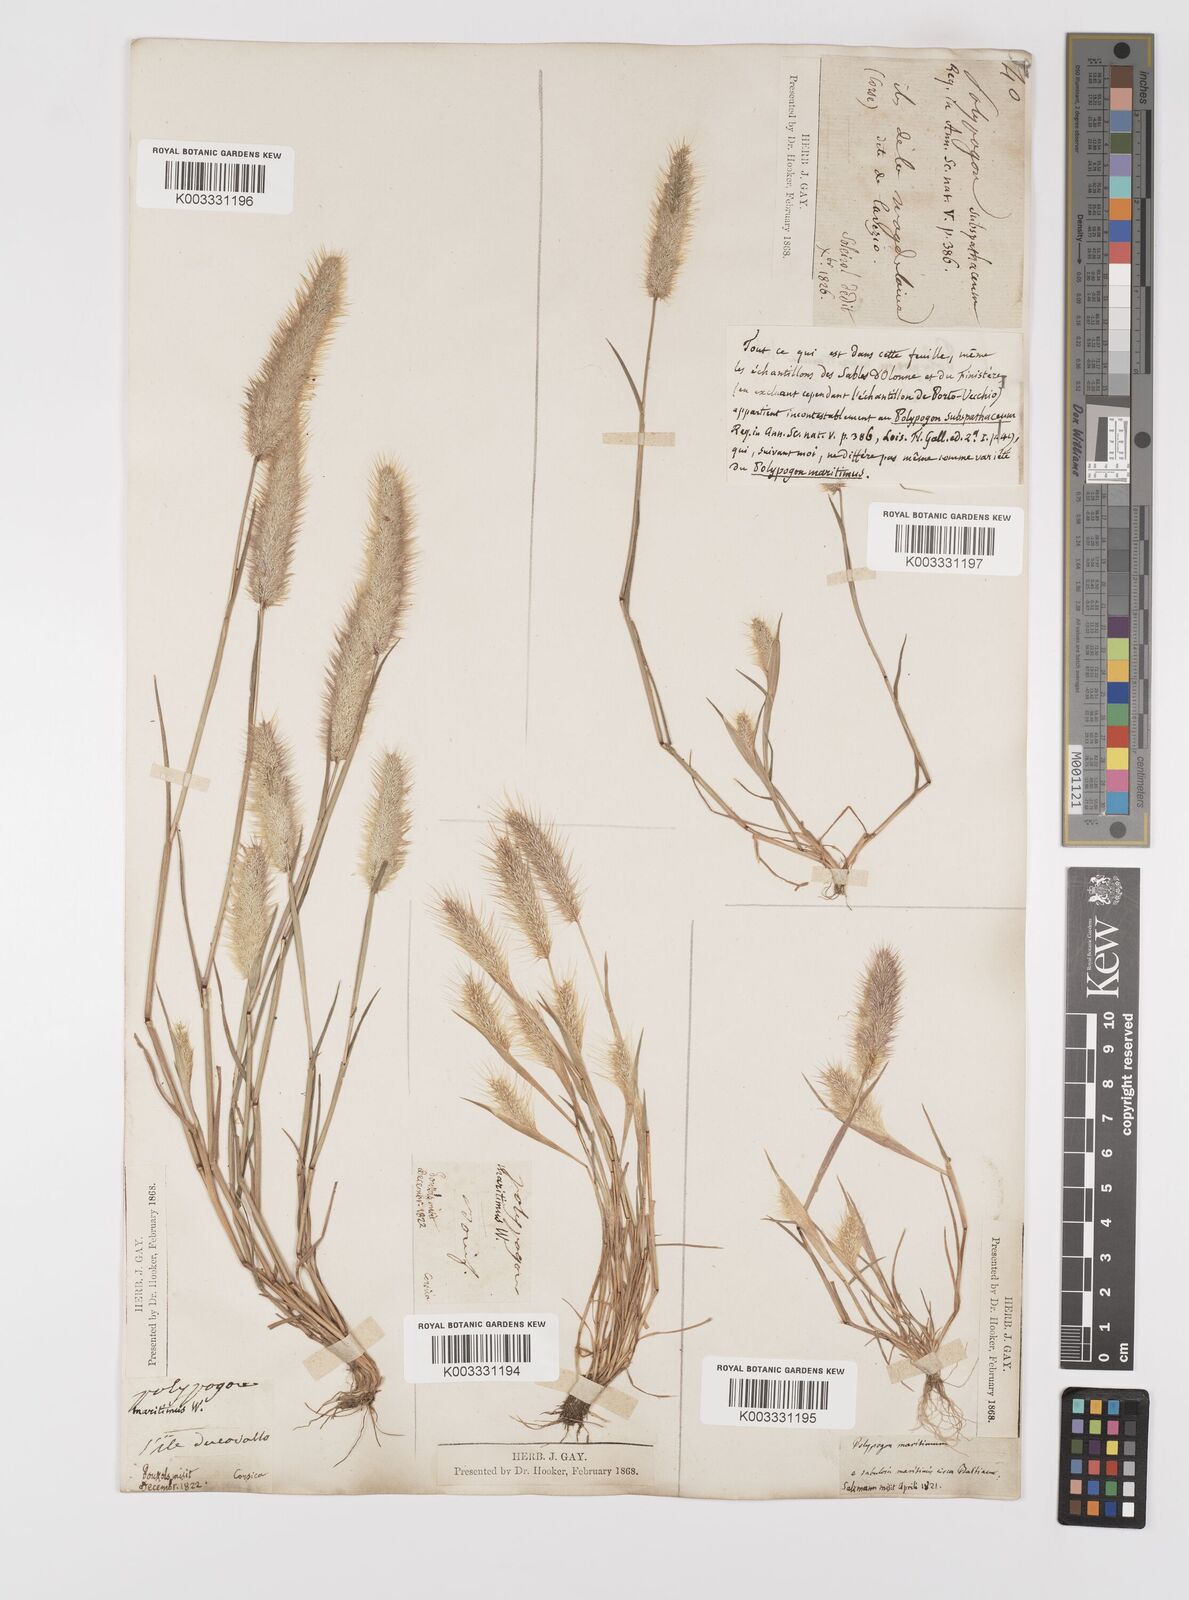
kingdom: Plantae
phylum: Tracheophyta
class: Liliopsida
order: Poales
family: Poaceae
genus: Polypogon
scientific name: Polypogon maritimus
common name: Mediterranean rabbitsfoot grass
